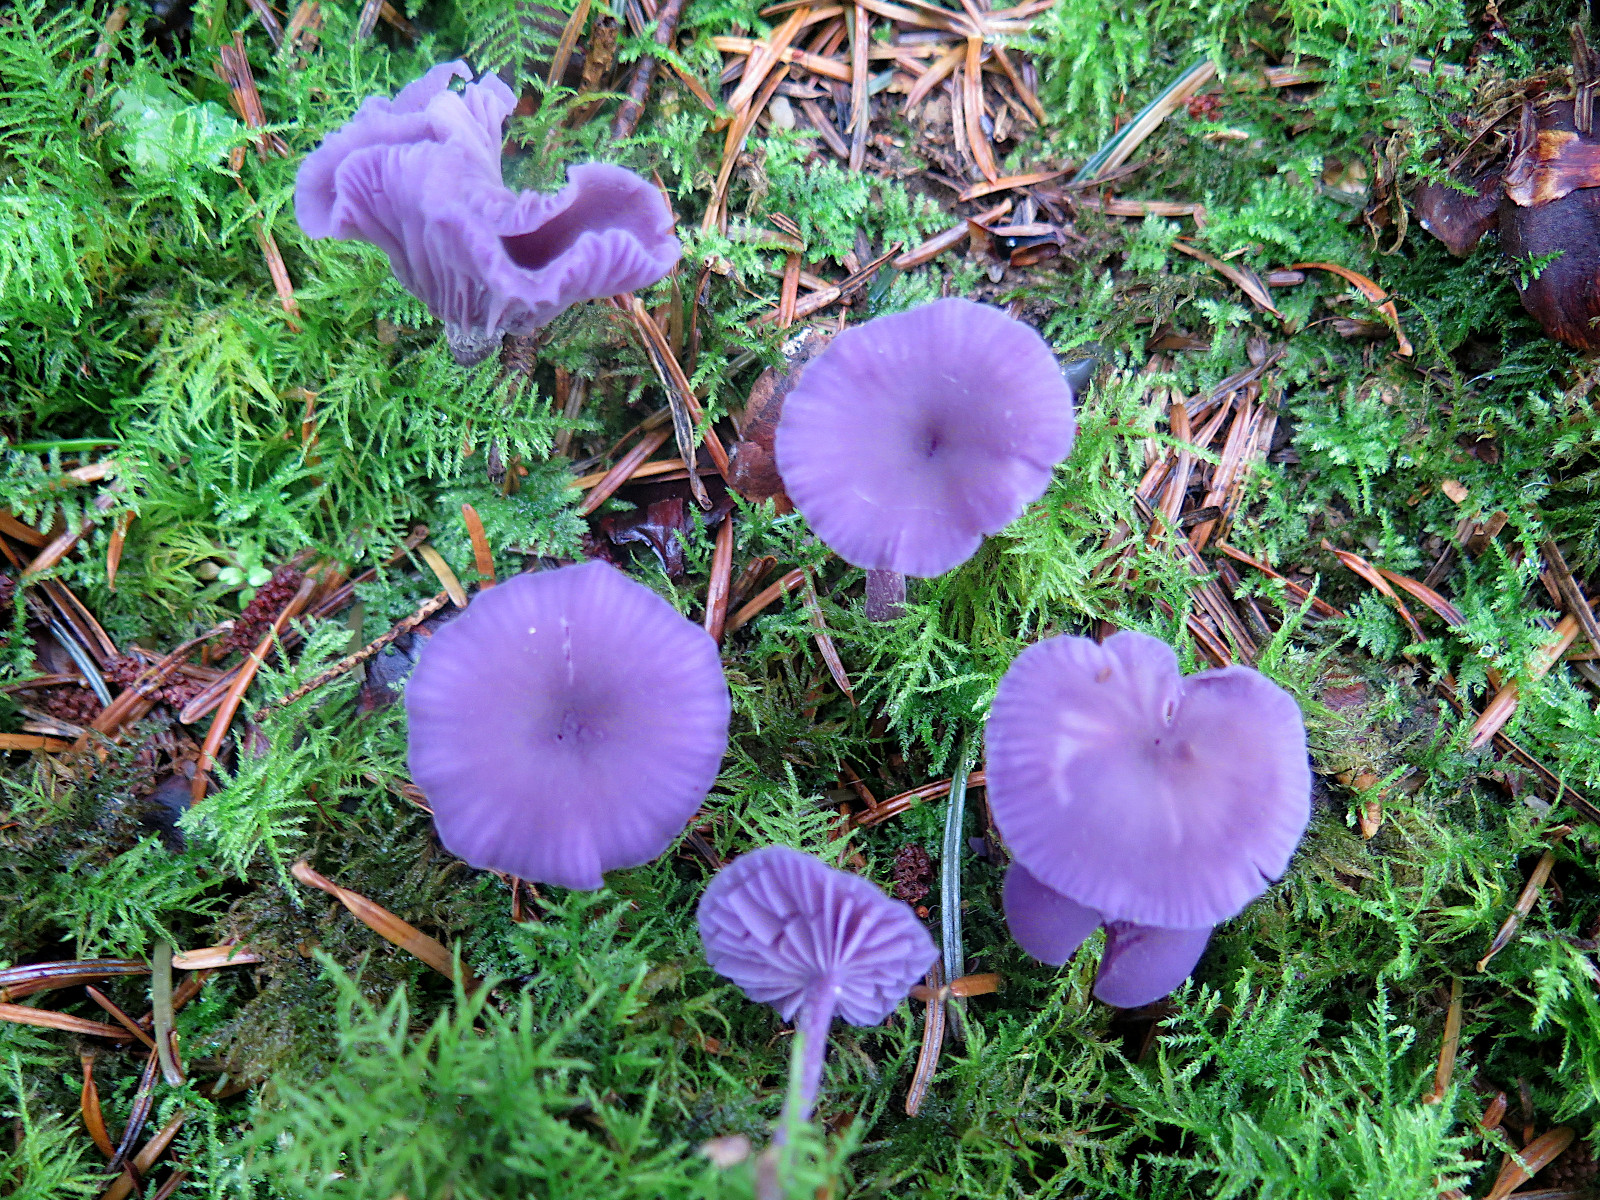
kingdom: Fungi
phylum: Basidiomycota
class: Agaricomycetes
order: Agaricales
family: Hydnangiaceae
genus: Laccaria
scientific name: Laccaria amethystina
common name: violet ametysthat
